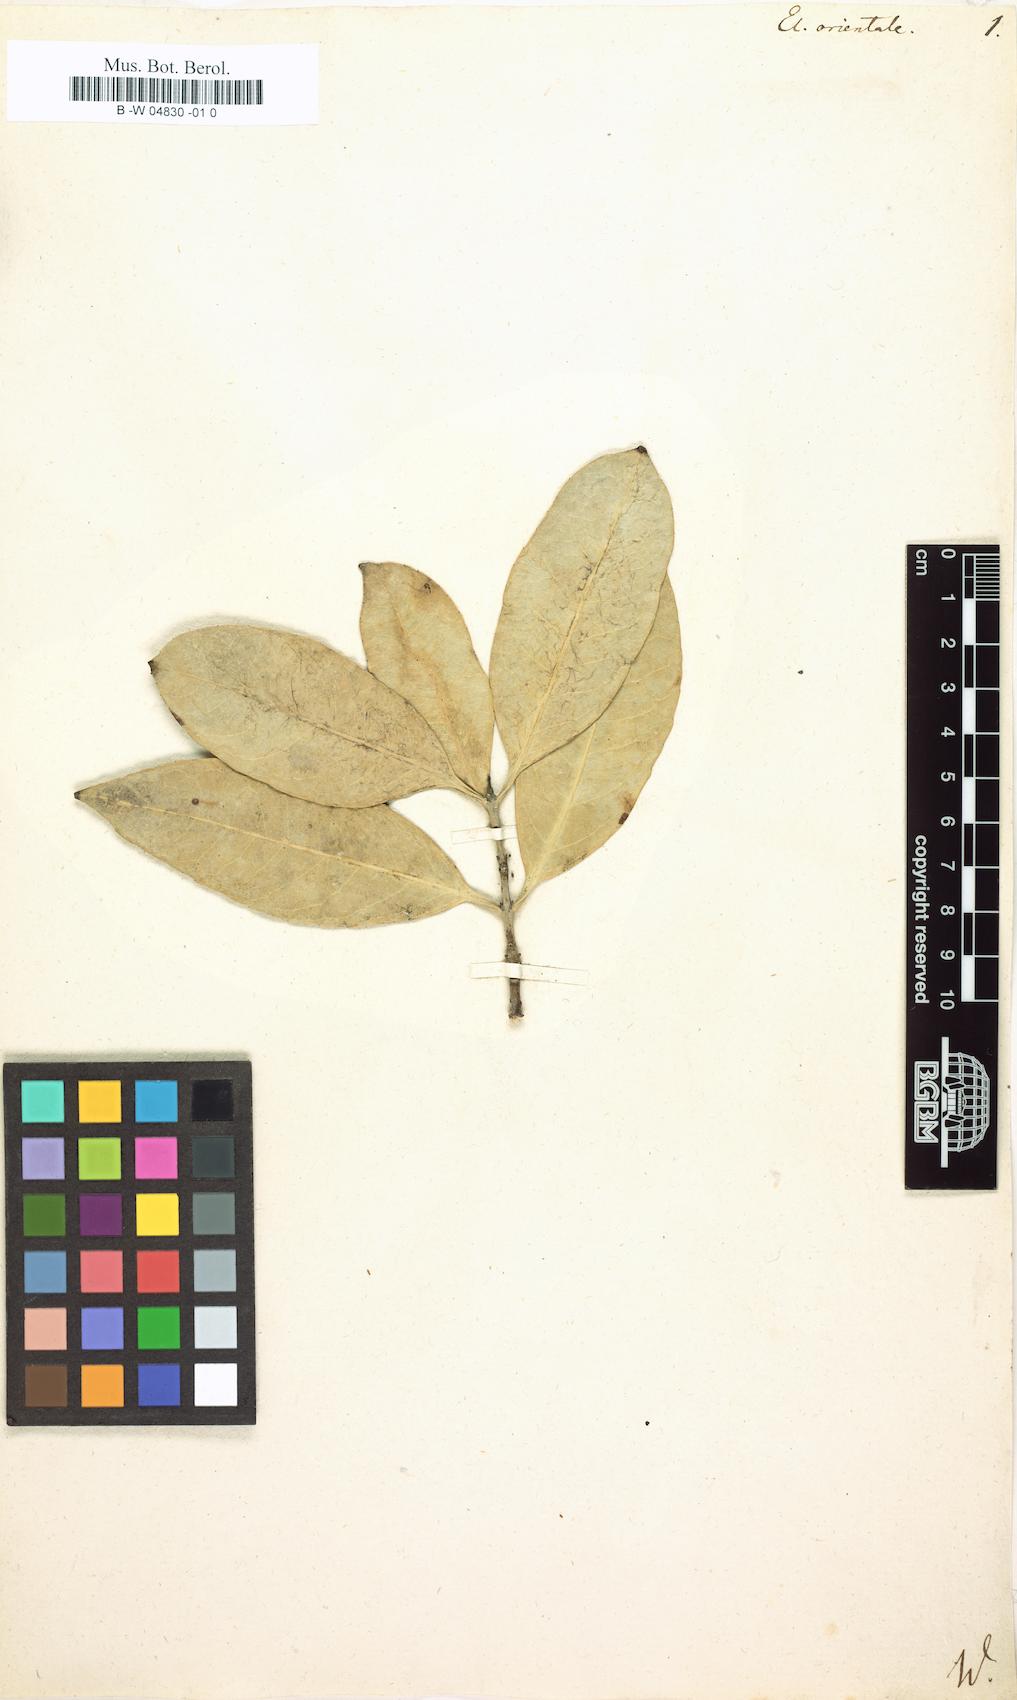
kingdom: Plantae
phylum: Tracheophyta
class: Magnoliopsida
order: Celastrales
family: Celastraceae
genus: Elaeodendron
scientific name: Elaeodendron orientale
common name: False olive
